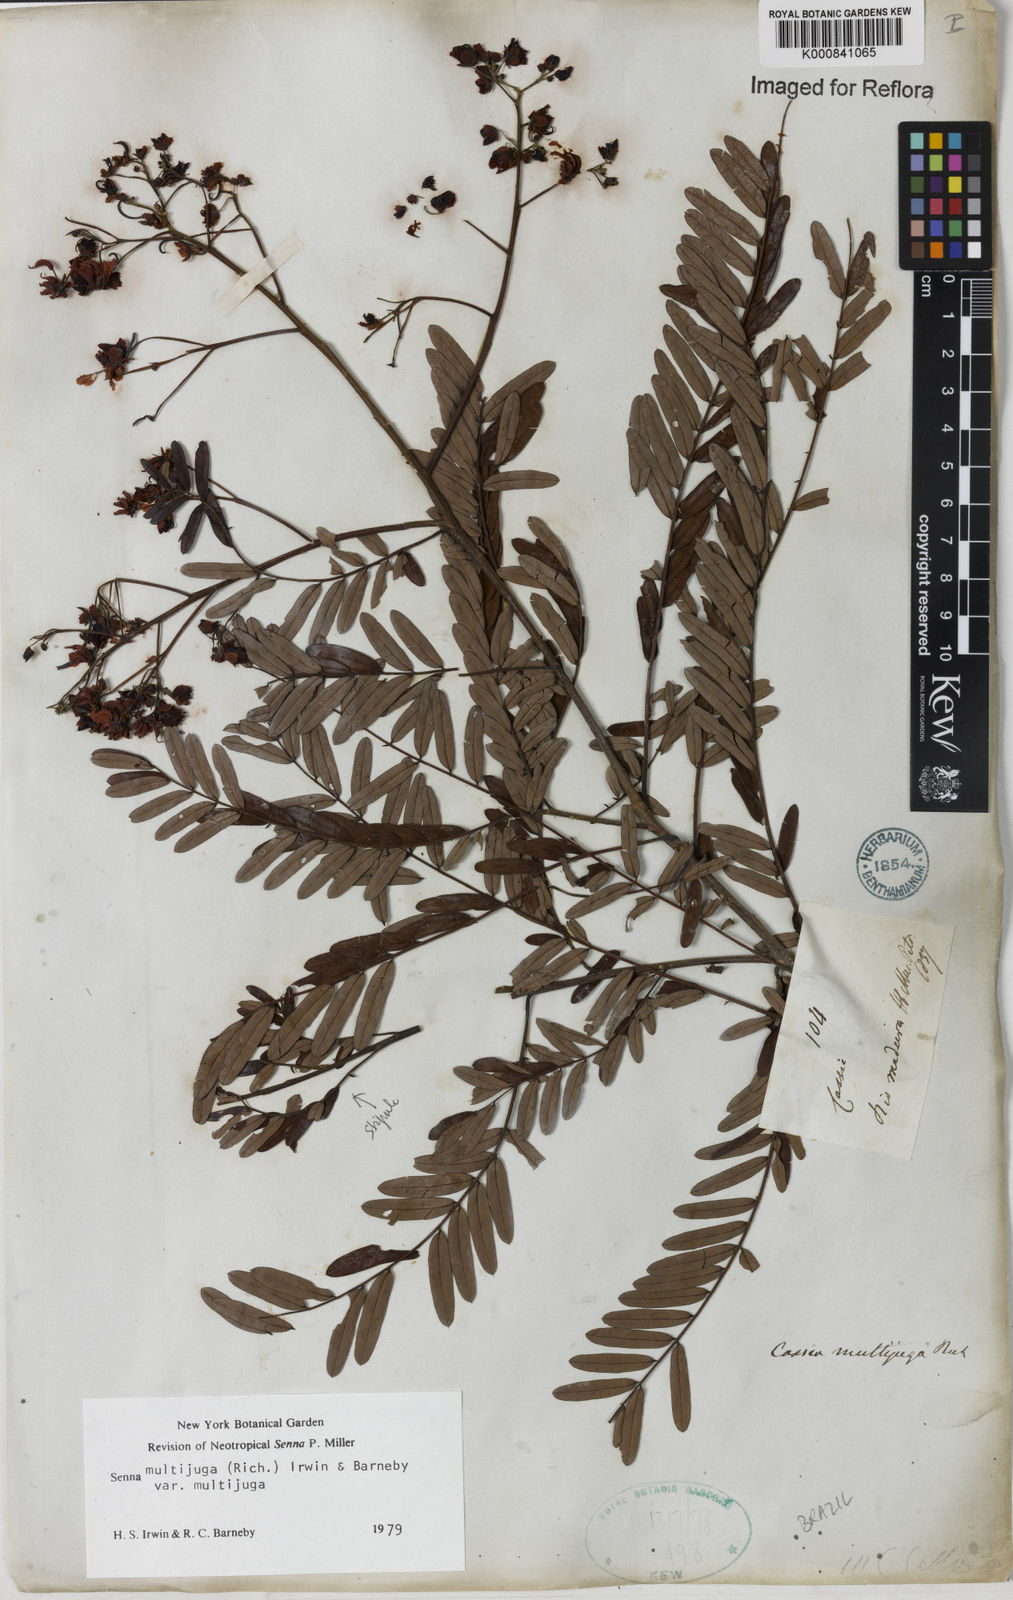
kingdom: Plantae
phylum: Tracheophyta
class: Magnoliopsida
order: Fabales
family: Fabaceae
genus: Senna
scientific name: Senna multijuga
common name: False sicklepod
